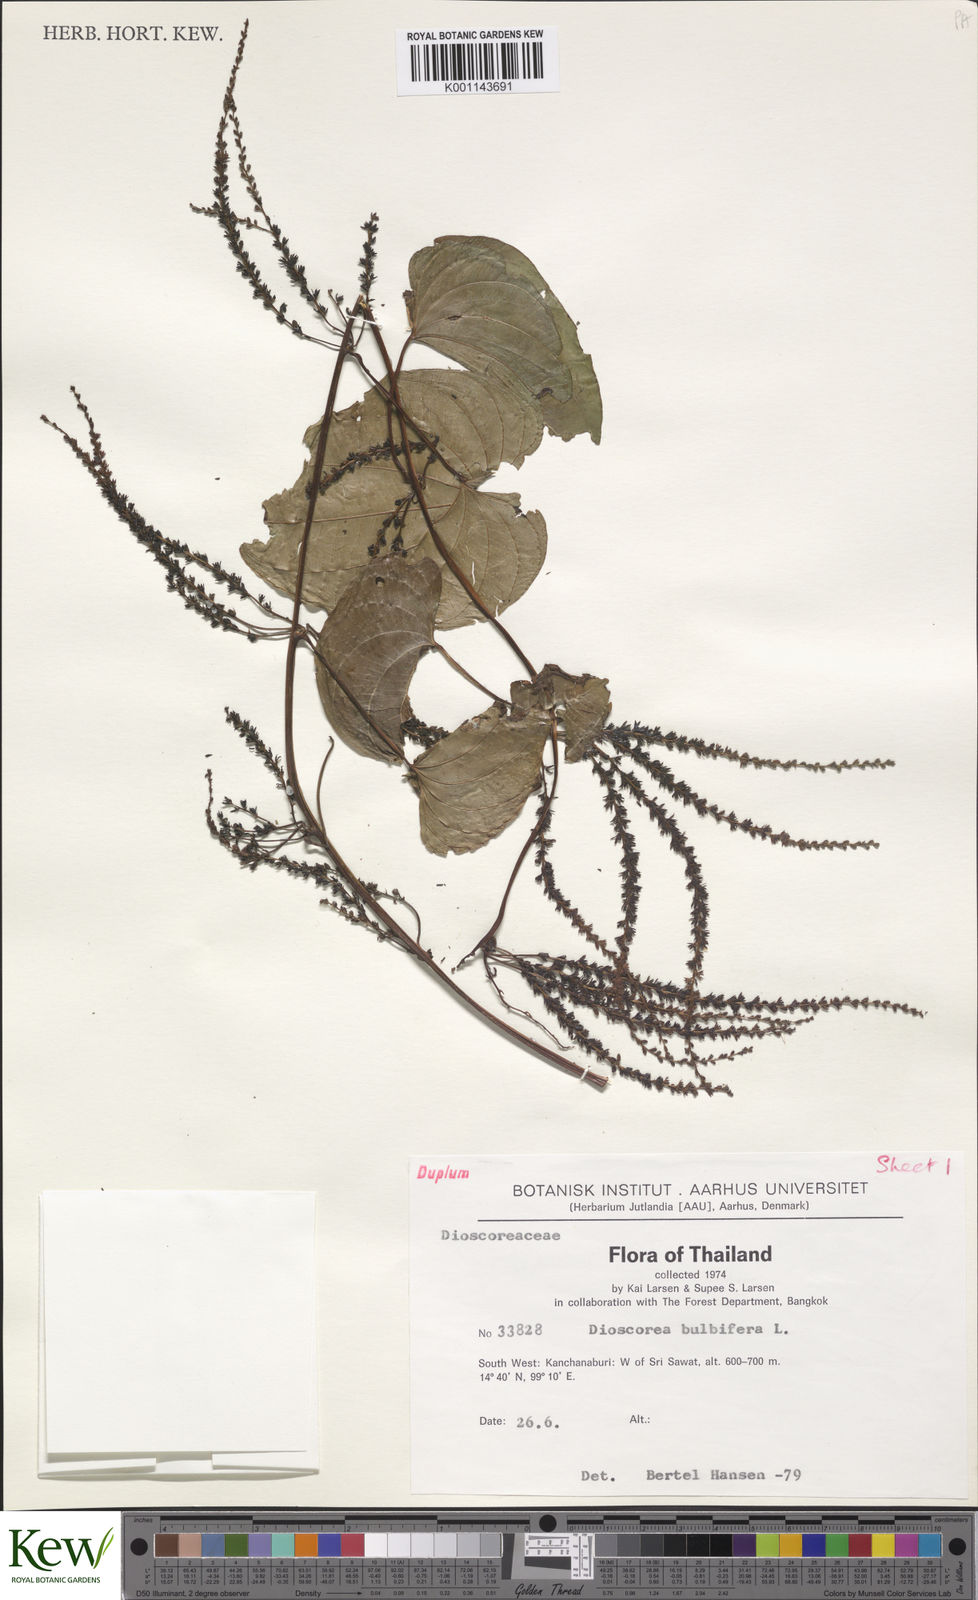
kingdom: Plantae
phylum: Tracheophyta
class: Liliopsida
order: Dioscoreales
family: Dioscoreaceae
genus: Dioscorea
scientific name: Dioscorea bulbifera
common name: Air yam
